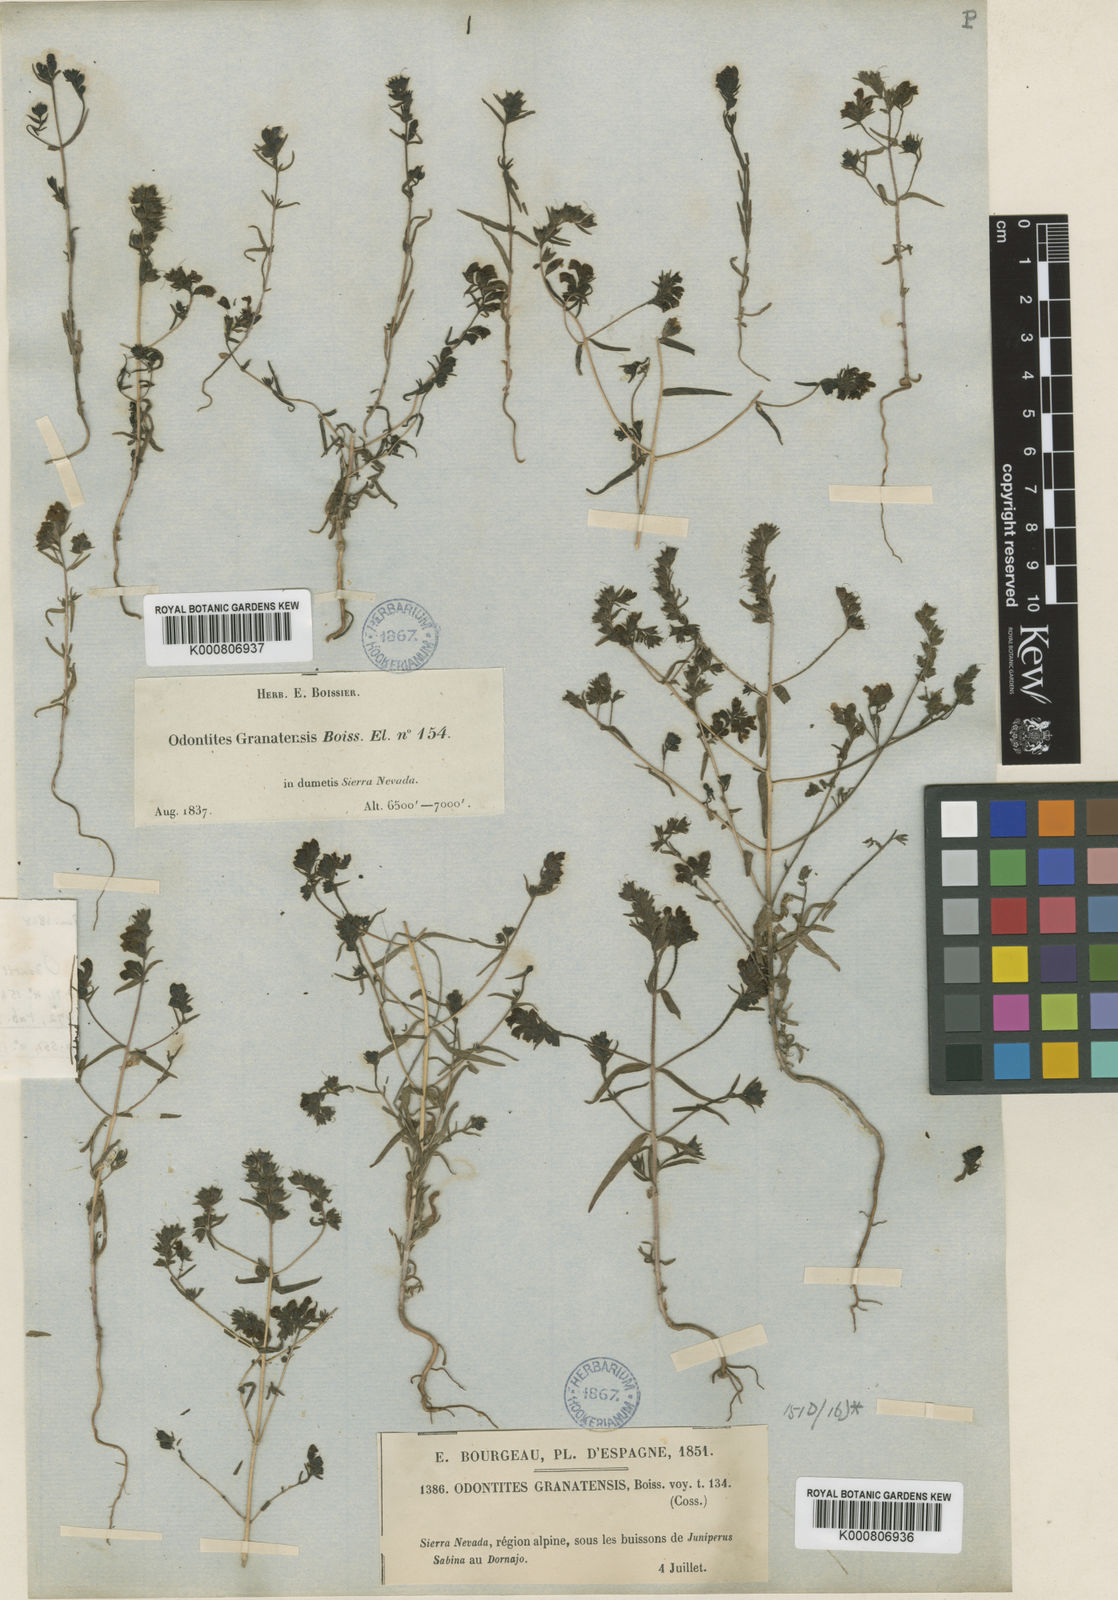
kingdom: Plantae
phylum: Tracheophyta
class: Magnoliopsida
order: Lamiales
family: Orobanchaceae
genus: Odontites
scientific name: Odontites viscosus
